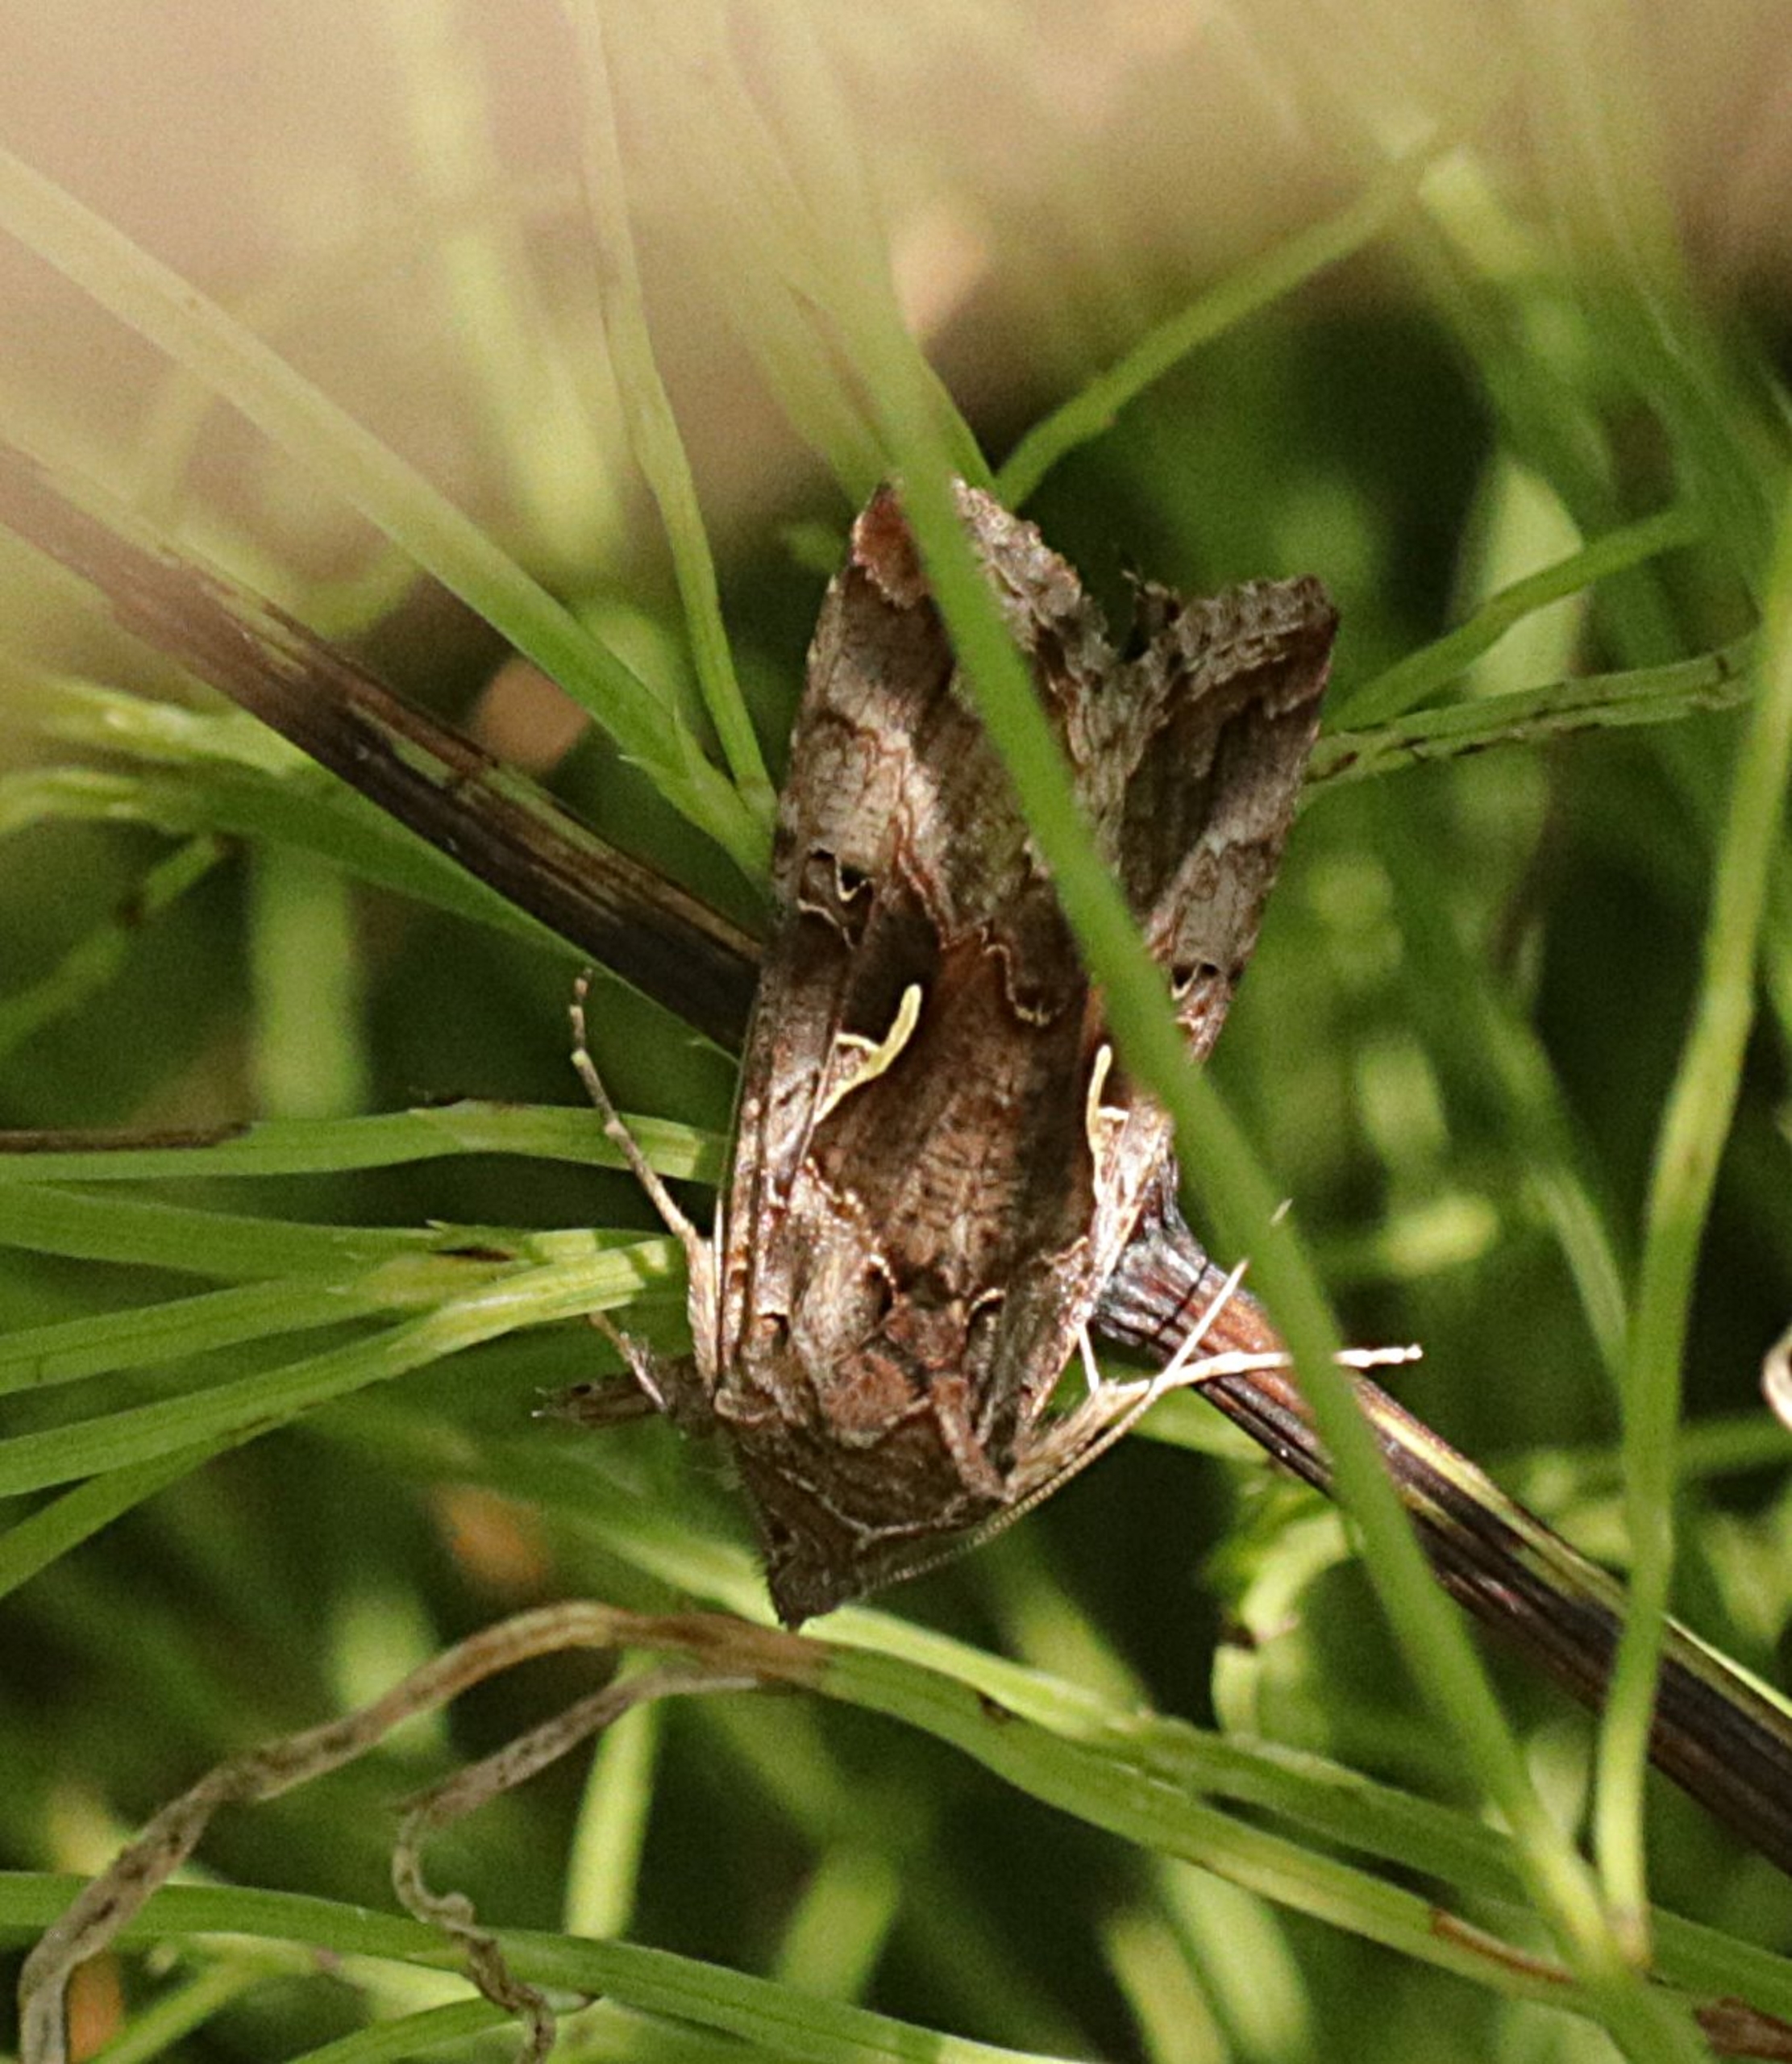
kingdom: Animalia
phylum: Arthropoda
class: Insecta
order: Lepidoptera
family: Noctuidae
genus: Autographa
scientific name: Autographa gamma
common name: Gammaugle
